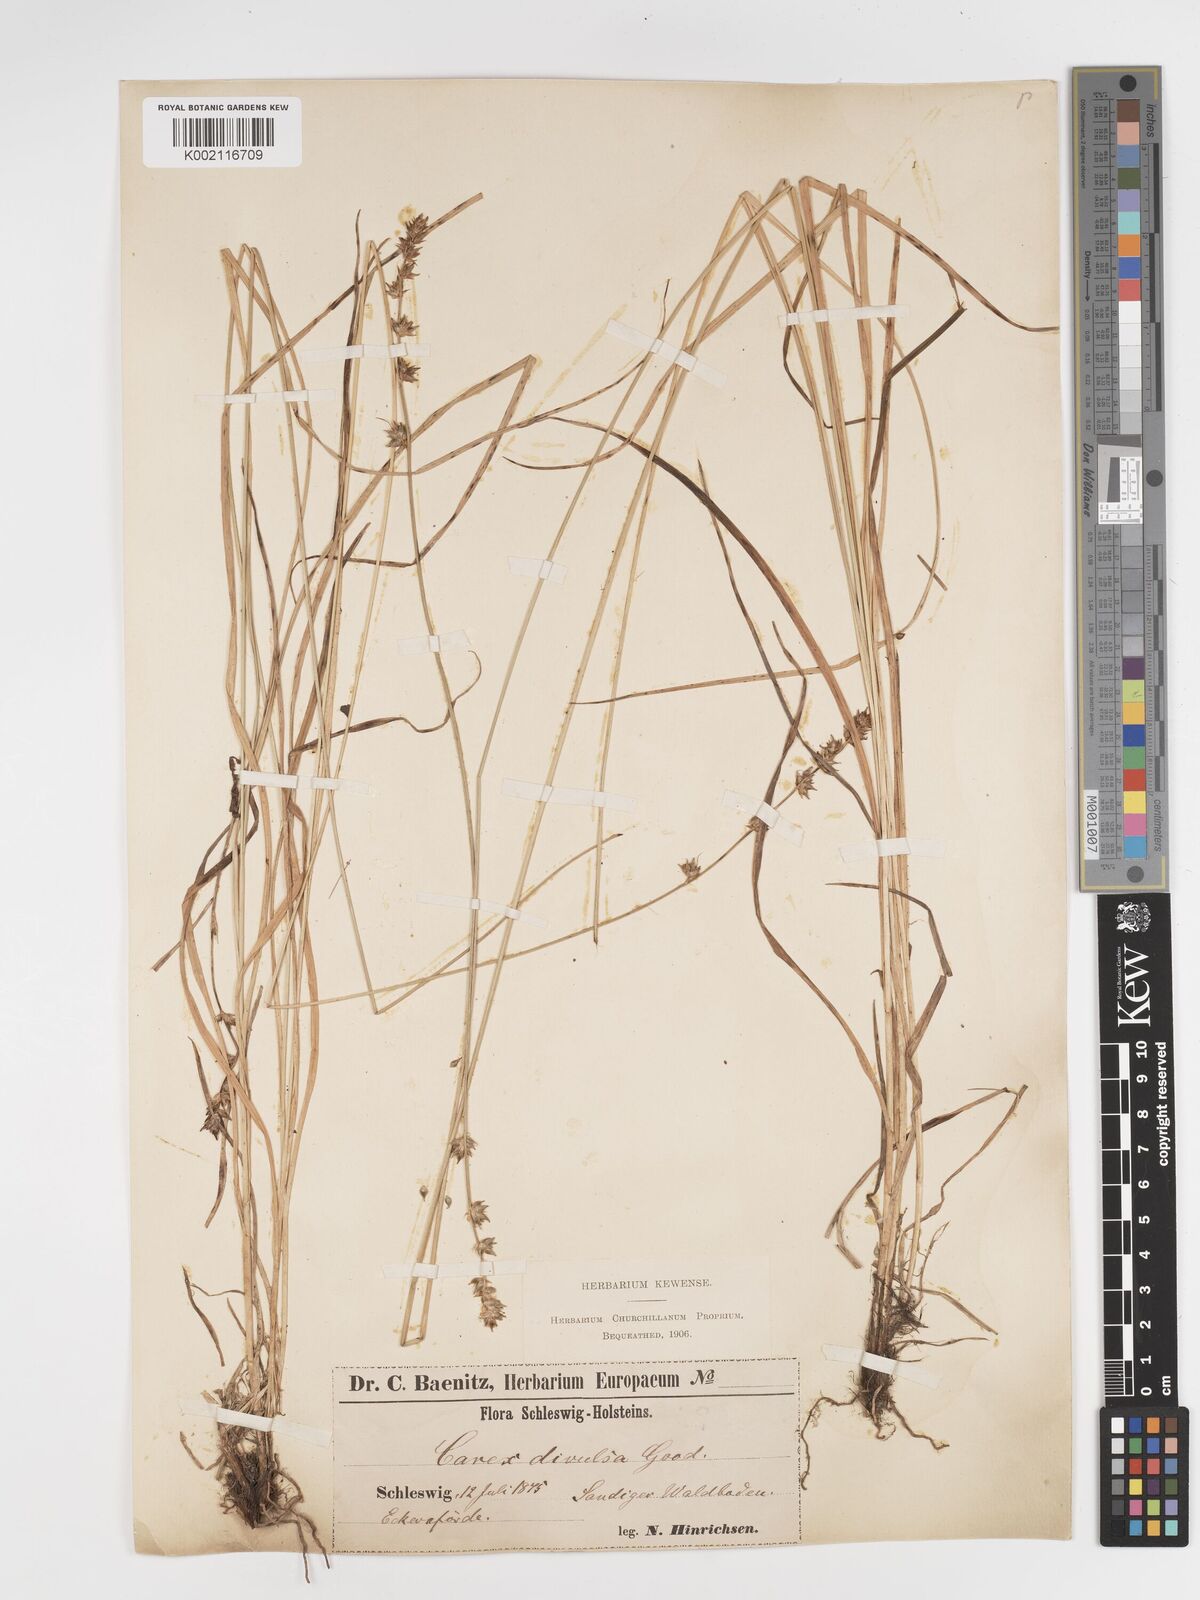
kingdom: Plantae
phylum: Tracheophyta
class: Liliopsida
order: Poales
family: Cyperaceae
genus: Carex
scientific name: Carex divulsa
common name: Grassland sedge
